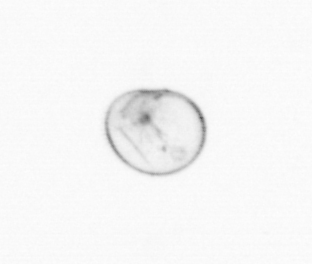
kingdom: Chromista
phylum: Myzozoa
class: Dinophyceae
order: Noctilucales
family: Noctilucaceae
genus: Noctiluca
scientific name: Noctiluca scintillans
